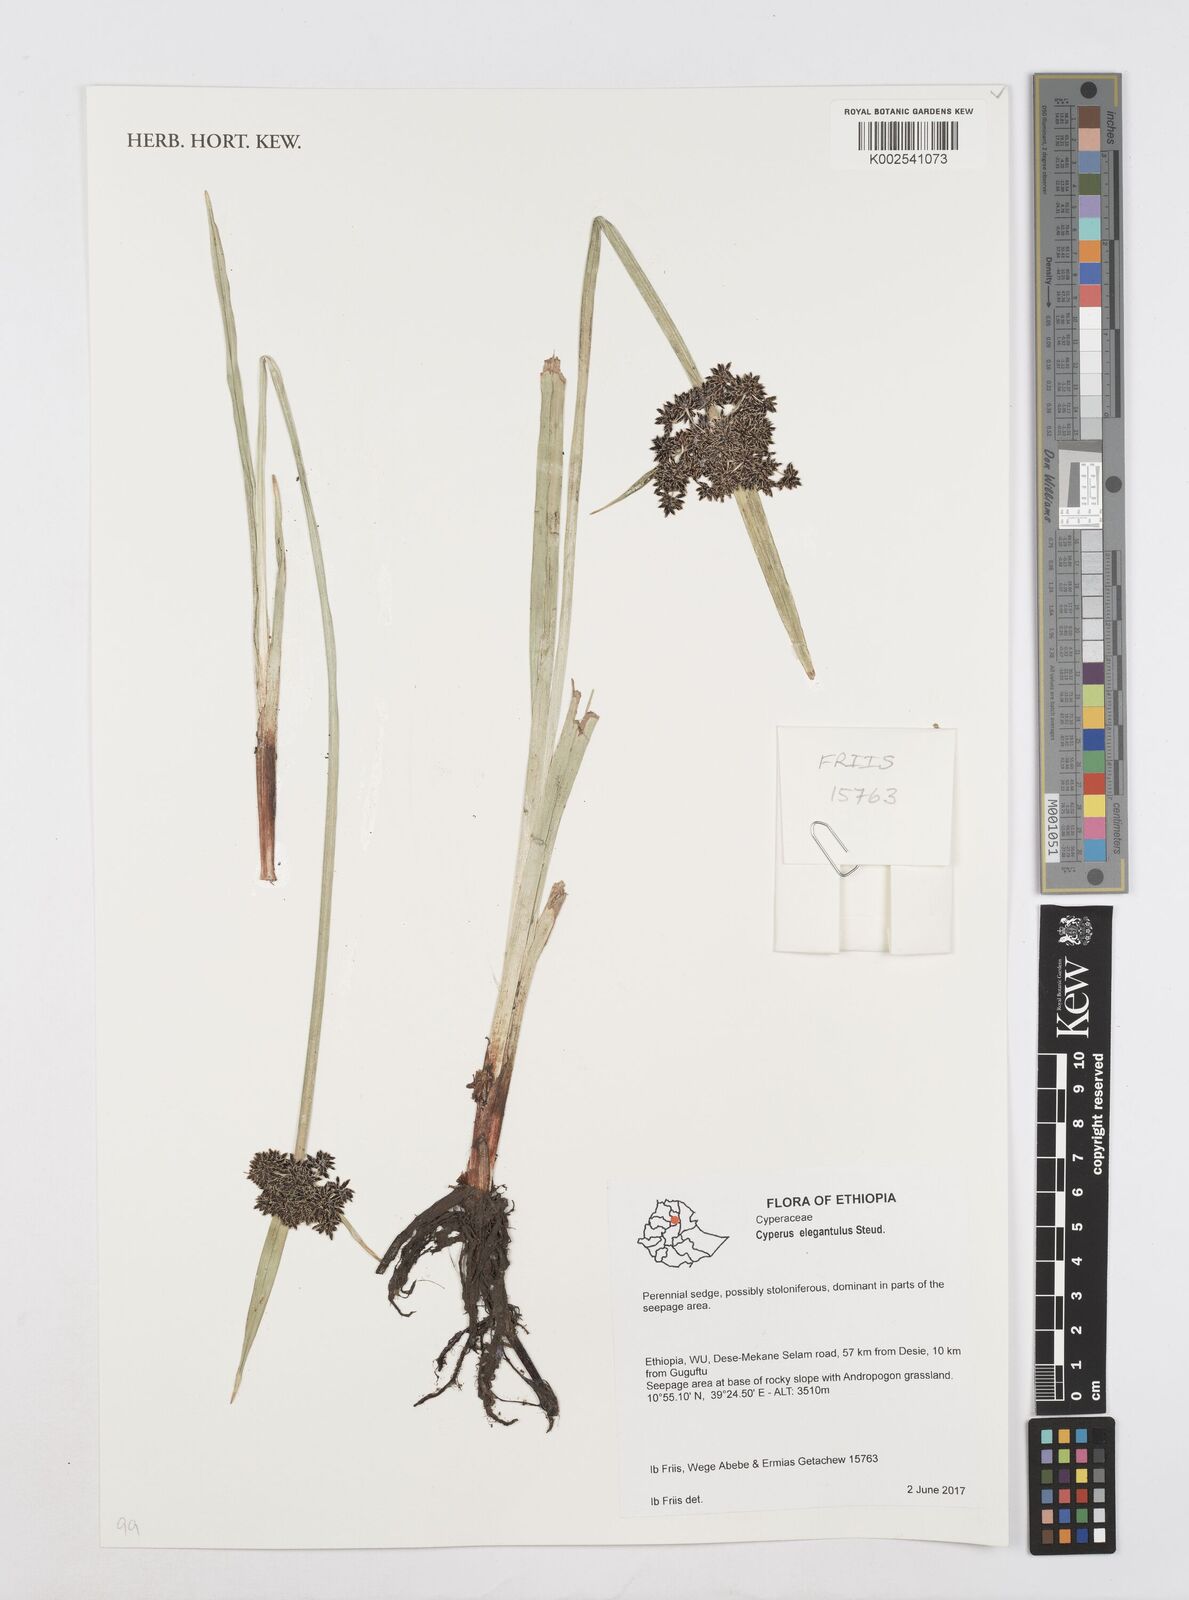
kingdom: Plantae
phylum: Tracheophyta
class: Liliopsida
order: Poales
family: Cyperaceae
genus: Cyperus
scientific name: Cyperus elegantulus
